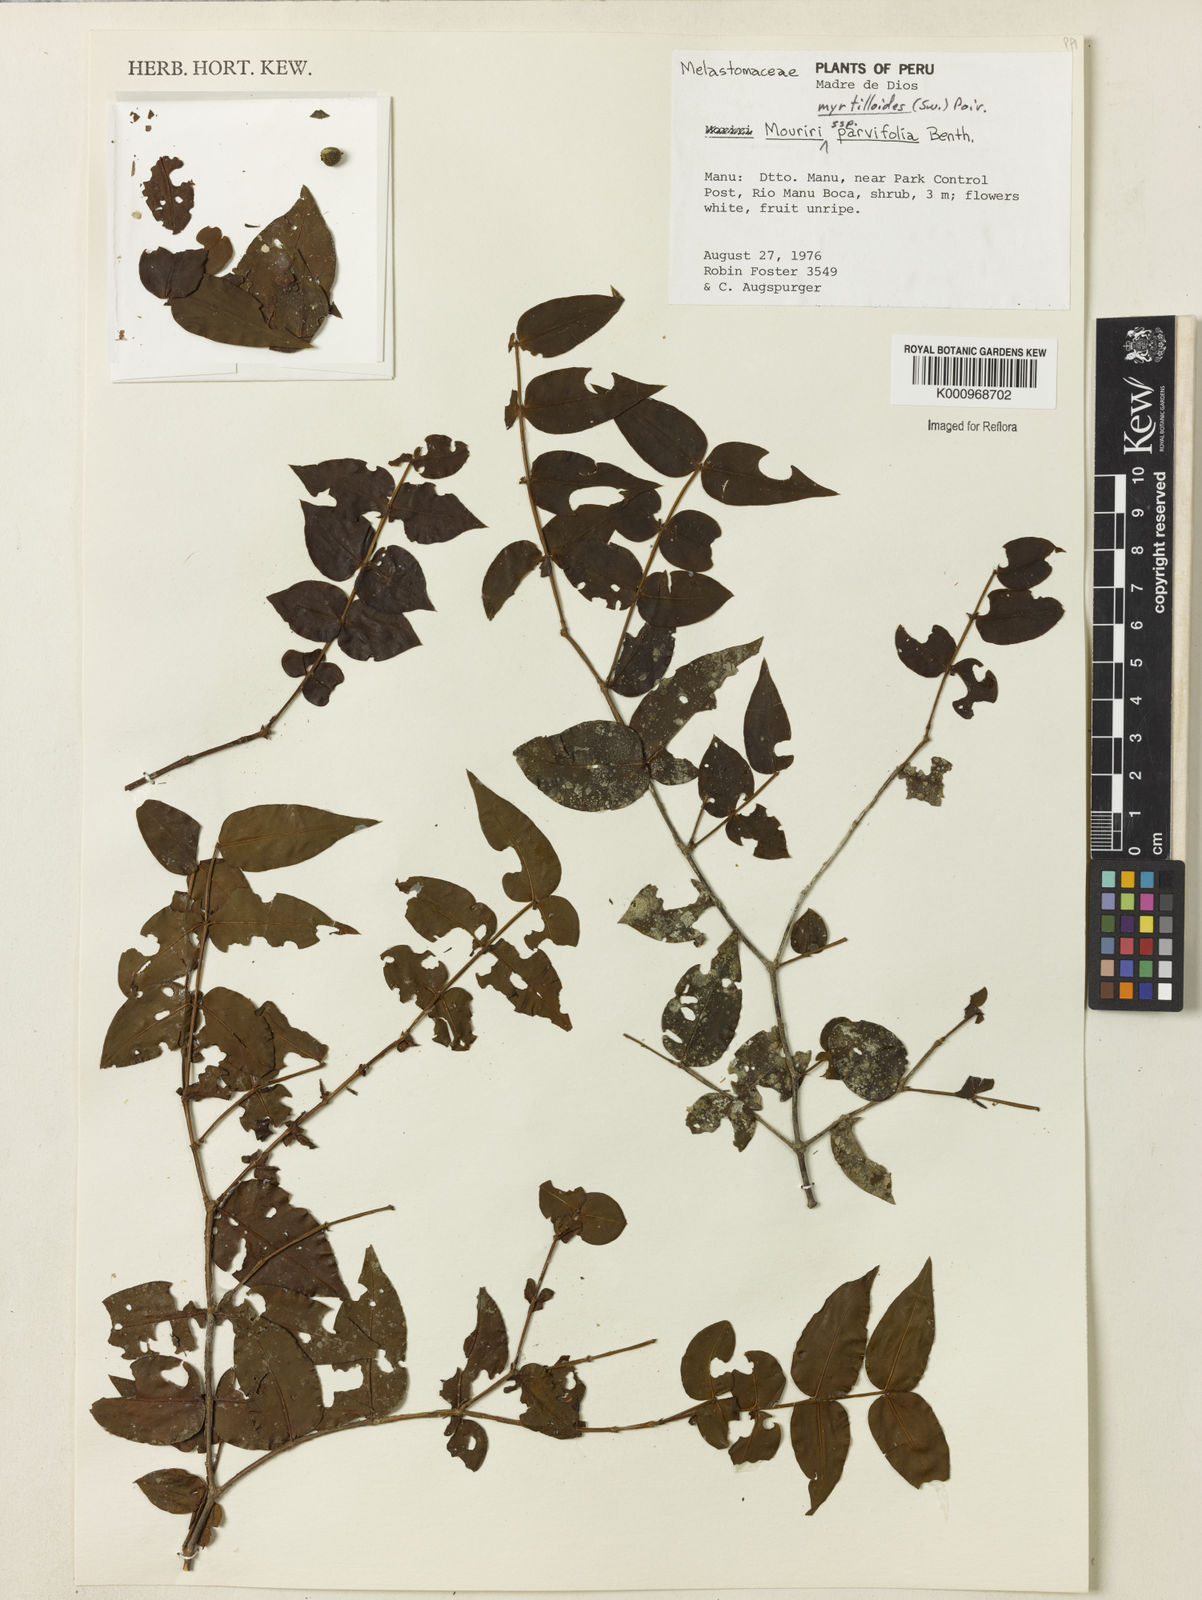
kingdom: Plantae
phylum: Tracheophyta
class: Magnoliopsida
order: Myrtales
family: Melastomataceae
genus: Mouriri
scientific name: Mouriri myrtilloides
